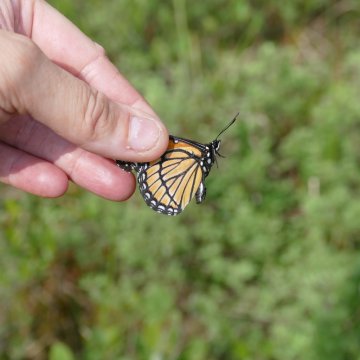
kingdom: Animalia
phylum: Arthropoda
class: Insecta
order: Lepidoptera
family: Nymphalidae
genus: Limenitis
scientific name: Limenitis archippus
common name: Viceroy
